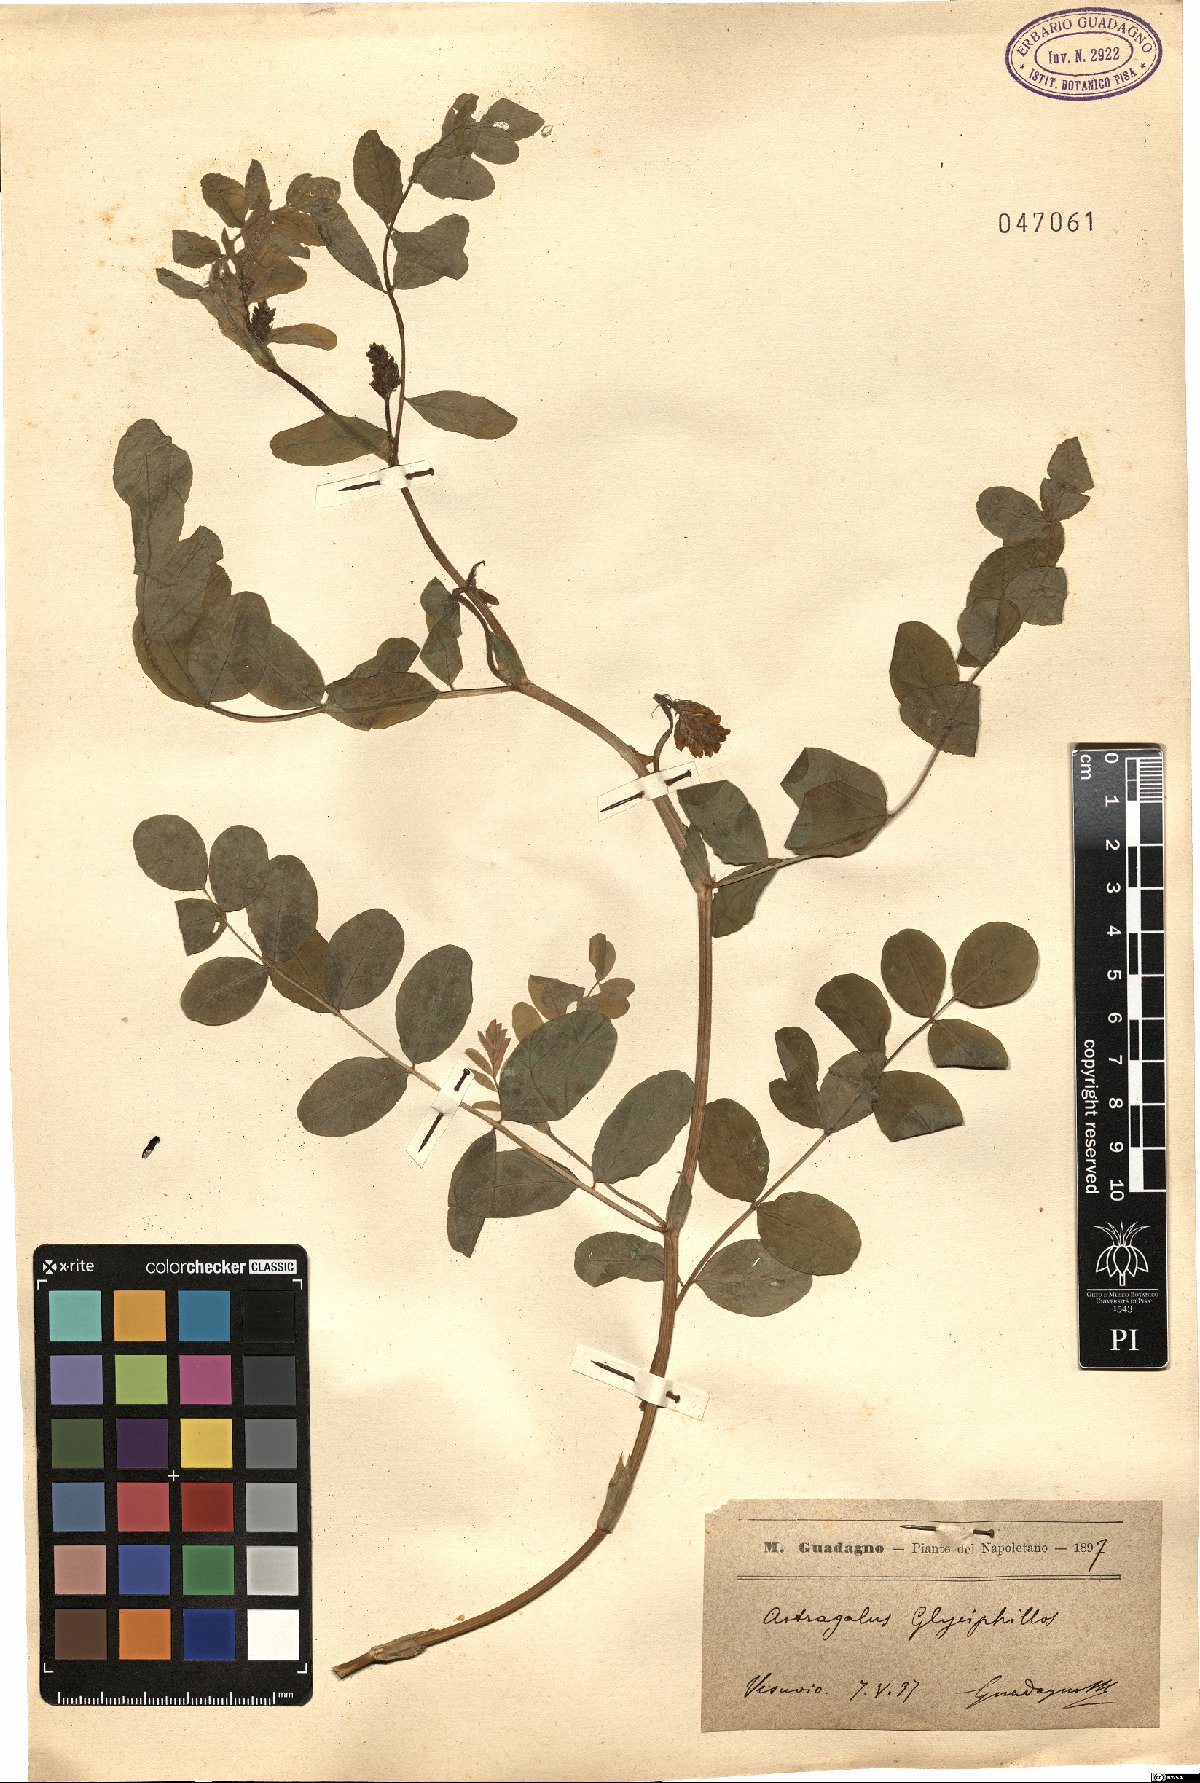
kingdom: Plantae
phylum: Tracheophyta
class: Magnoliopsida
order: Fabales
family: Fabaceae
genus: Astragalus
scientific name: Astragalus glycyphyllos
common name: Wild liquorice
